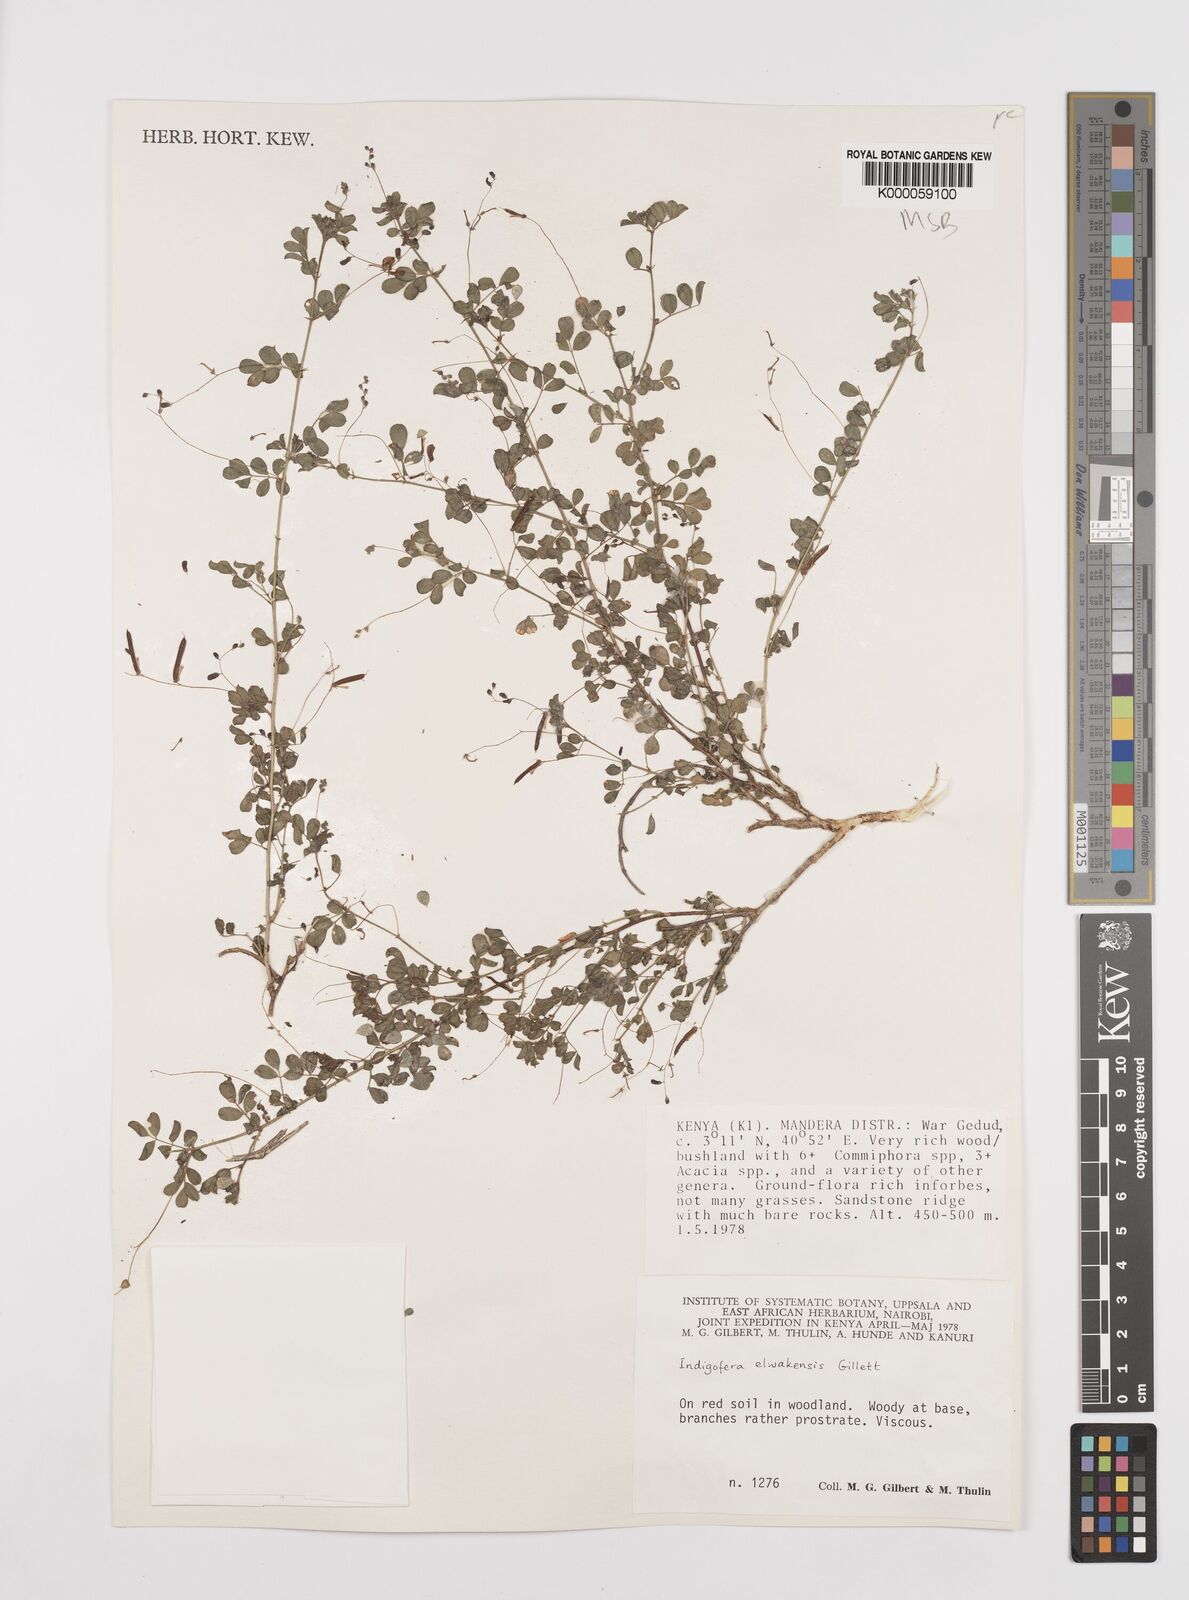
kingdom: Plantae
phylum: Tracheophyta
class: Magnoliopsida
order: Fabales
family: Fabaceae
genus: Indigofera
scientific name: Indigofera elwakensis
